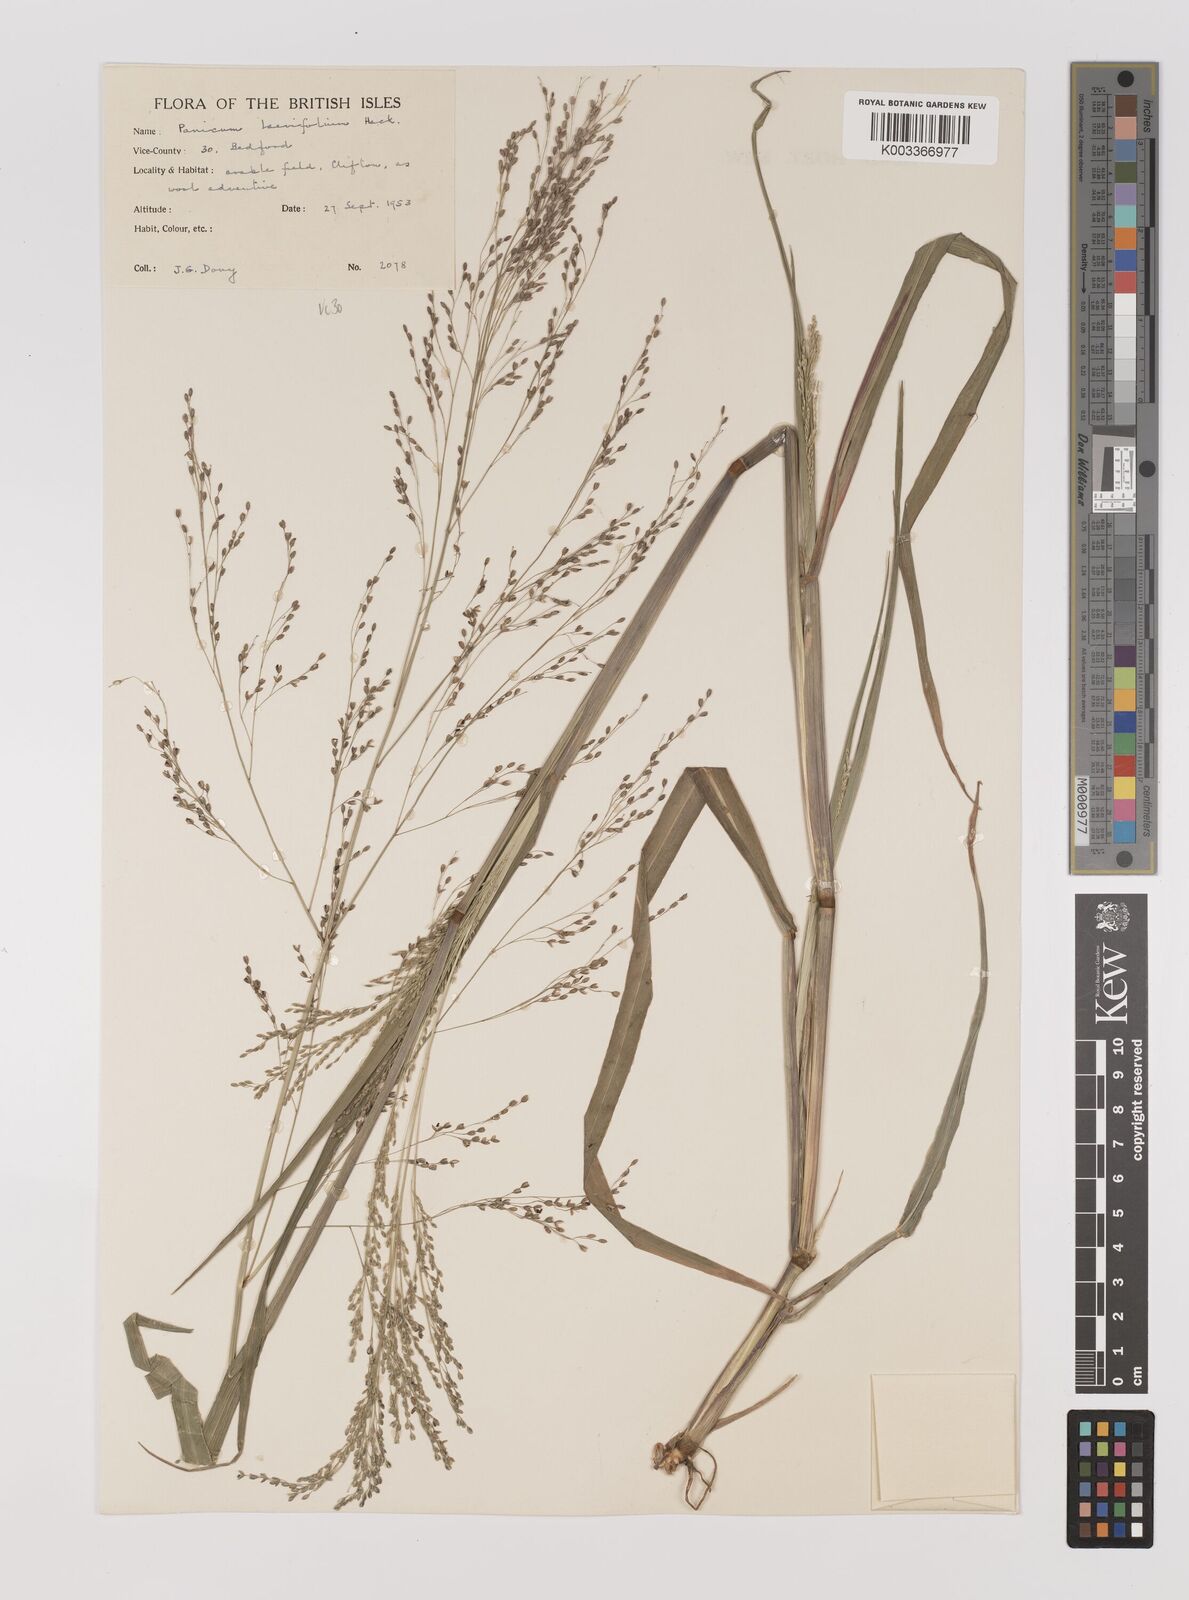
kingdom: Plantae
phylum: Tracheophyta
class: Liliopsida
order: Poales
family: Poaceae
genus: Panicum
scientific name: Panicum schinzii
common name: Sweet grass
